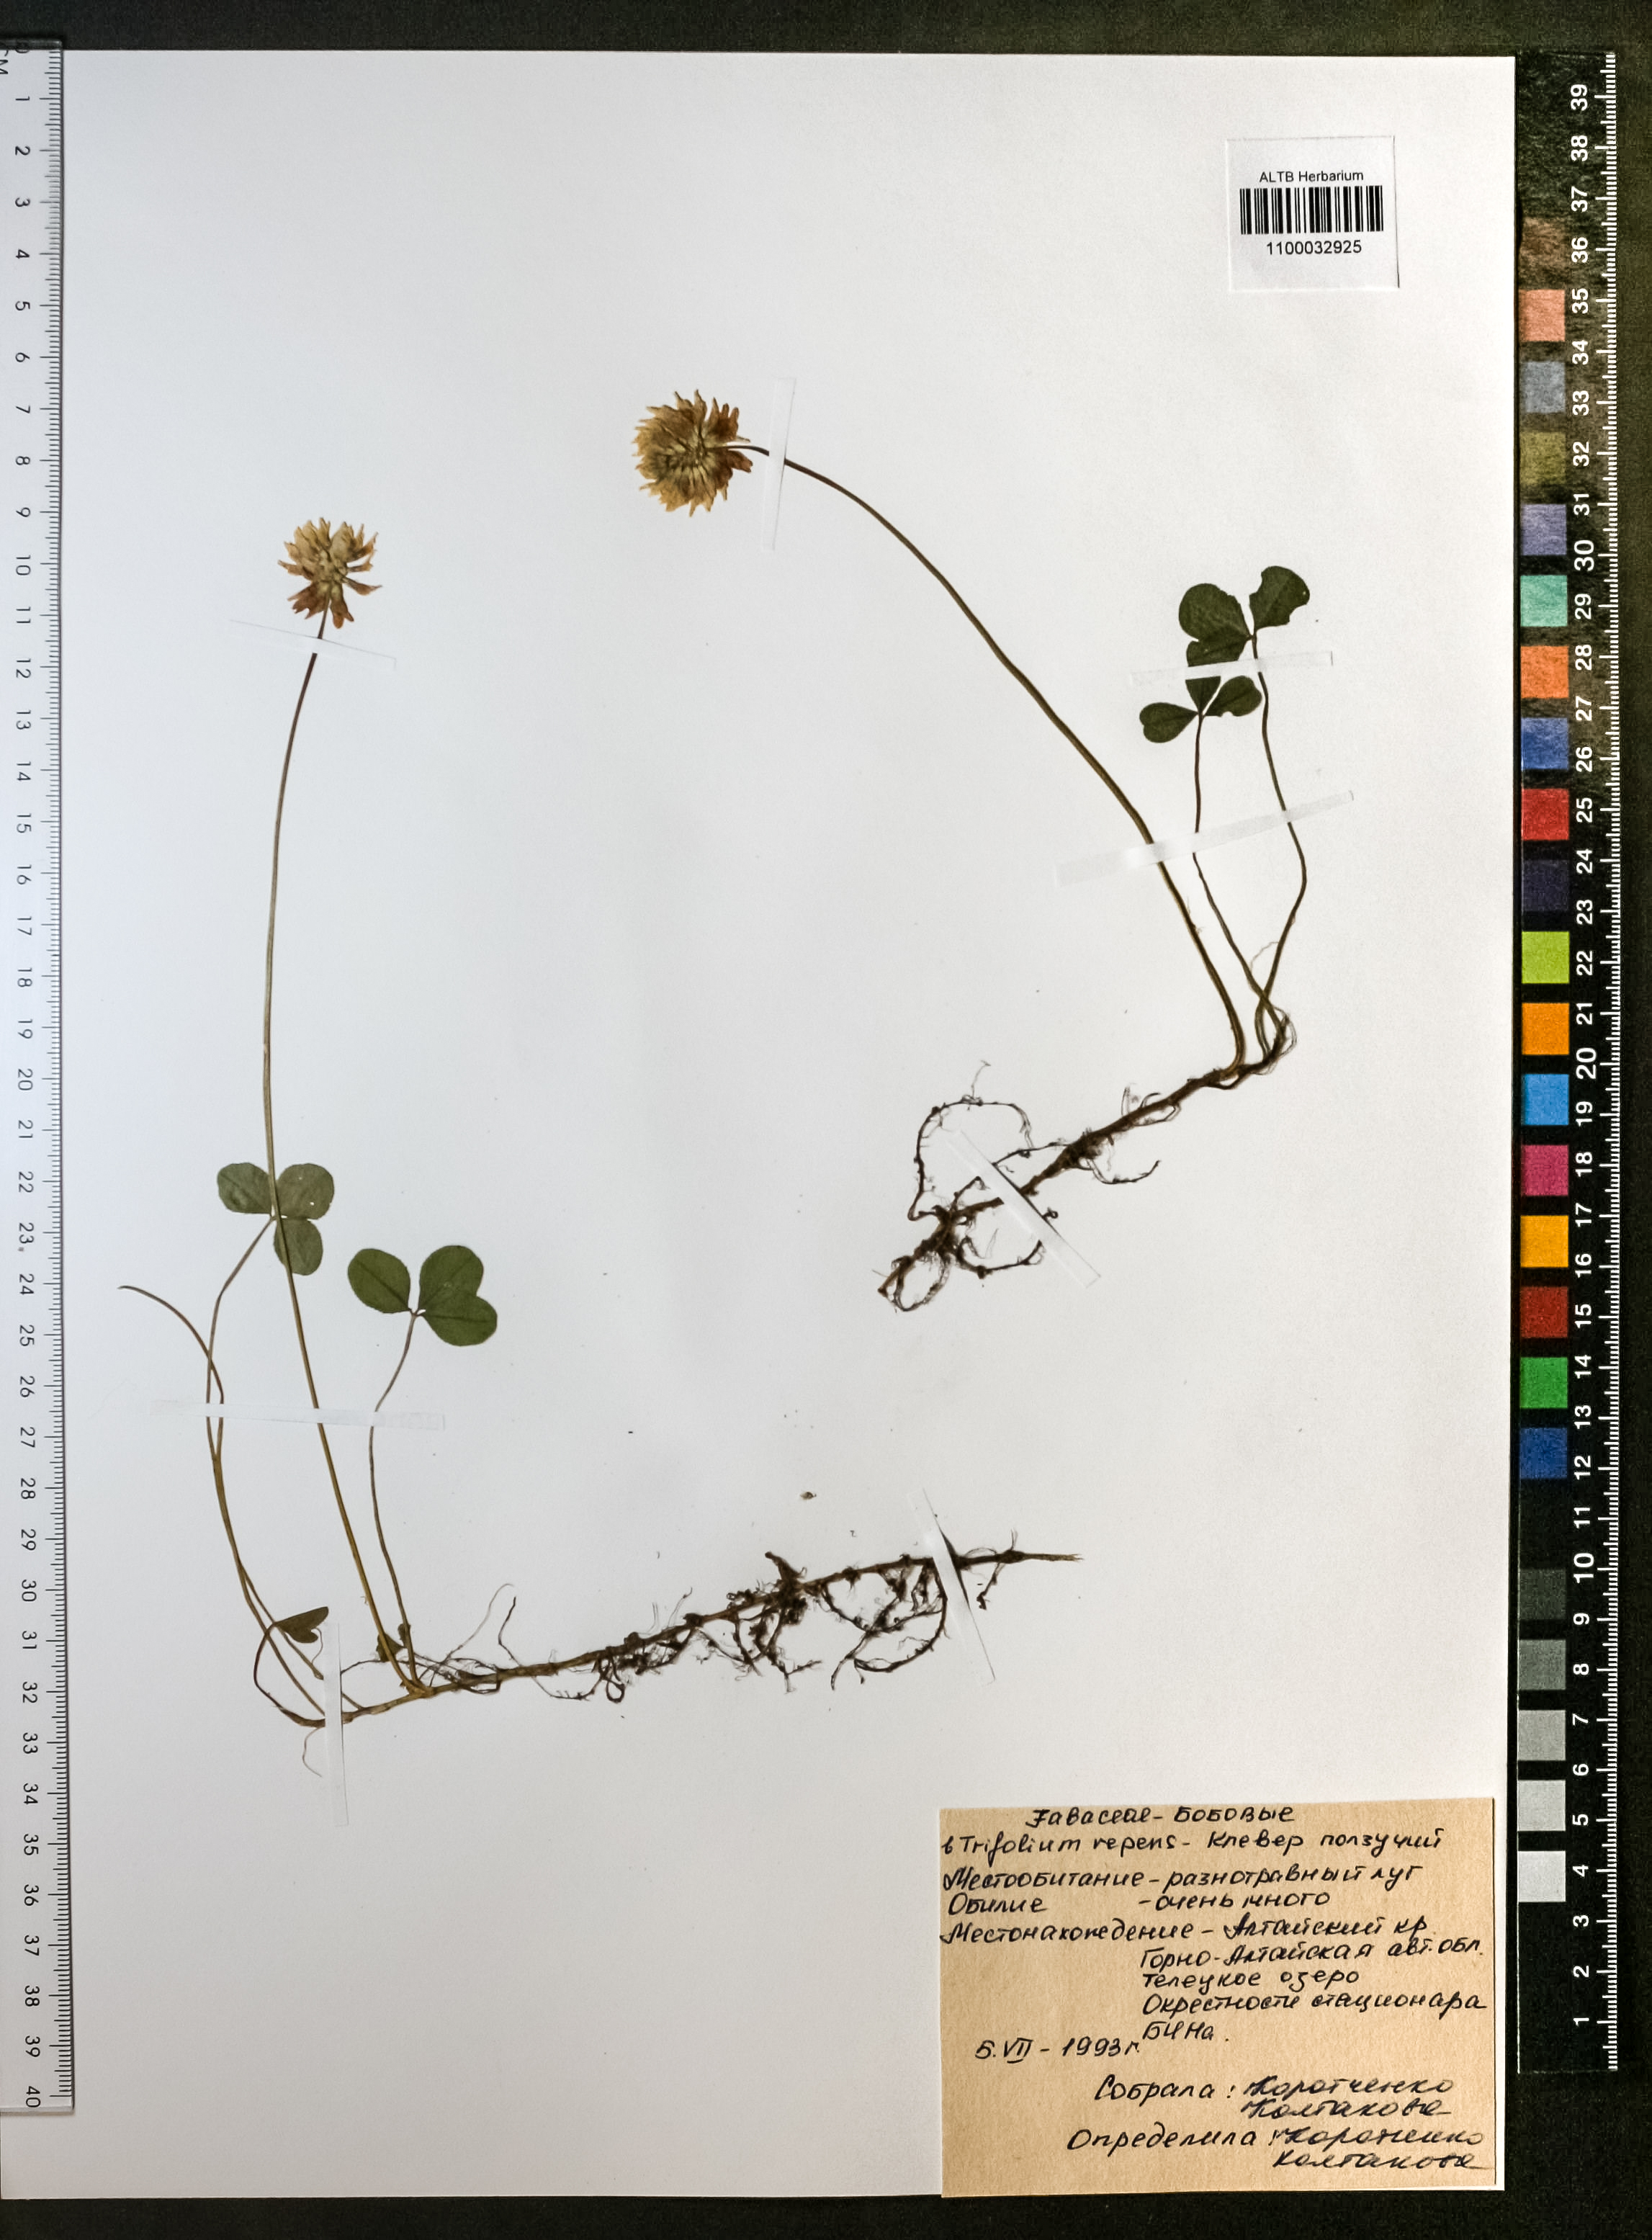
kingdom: Plantae
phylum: Tracheophyta
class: Magnoliopsida
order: Fabales
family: Fabaceae
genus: Trifolium
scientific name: Trifolium repens
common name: White clover
